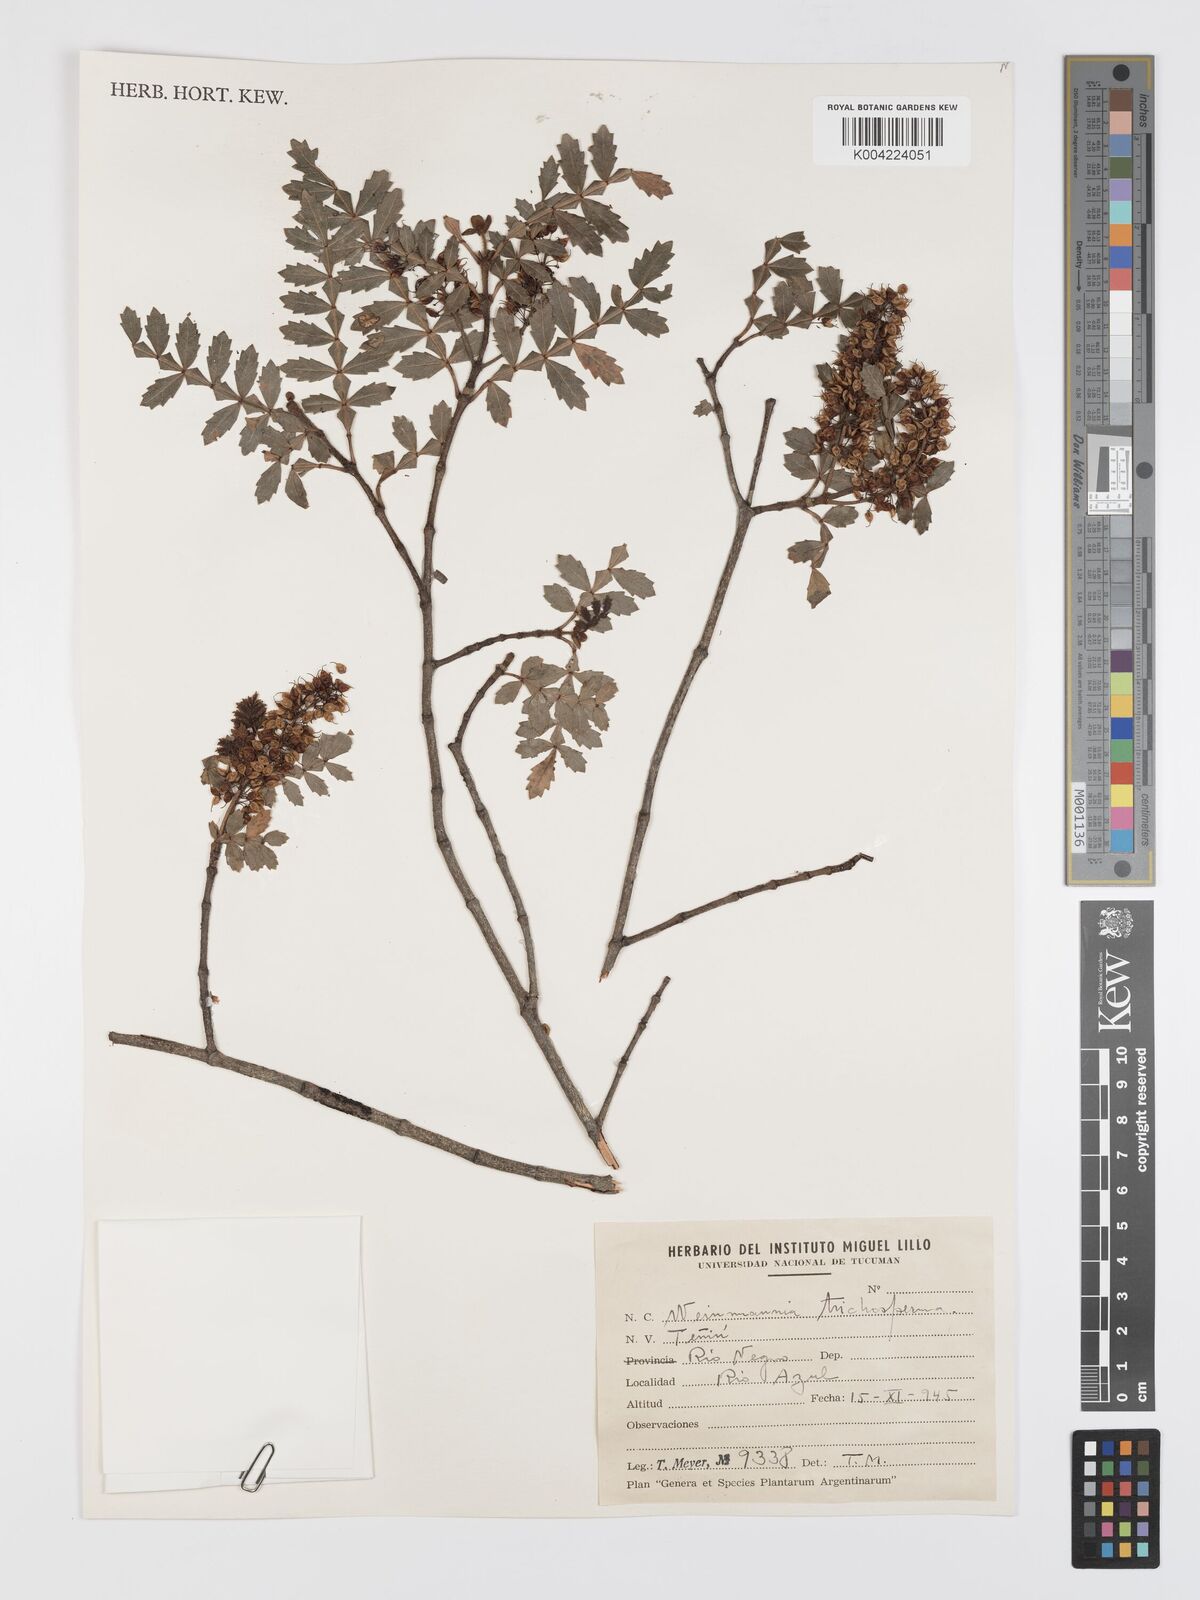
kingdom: Plantae
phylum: Tracheophyta
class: Magnoliopsida
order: Oxalidales
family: Cunoniaceae
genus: Weinmannia
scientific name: Weinmannia trichosperma
